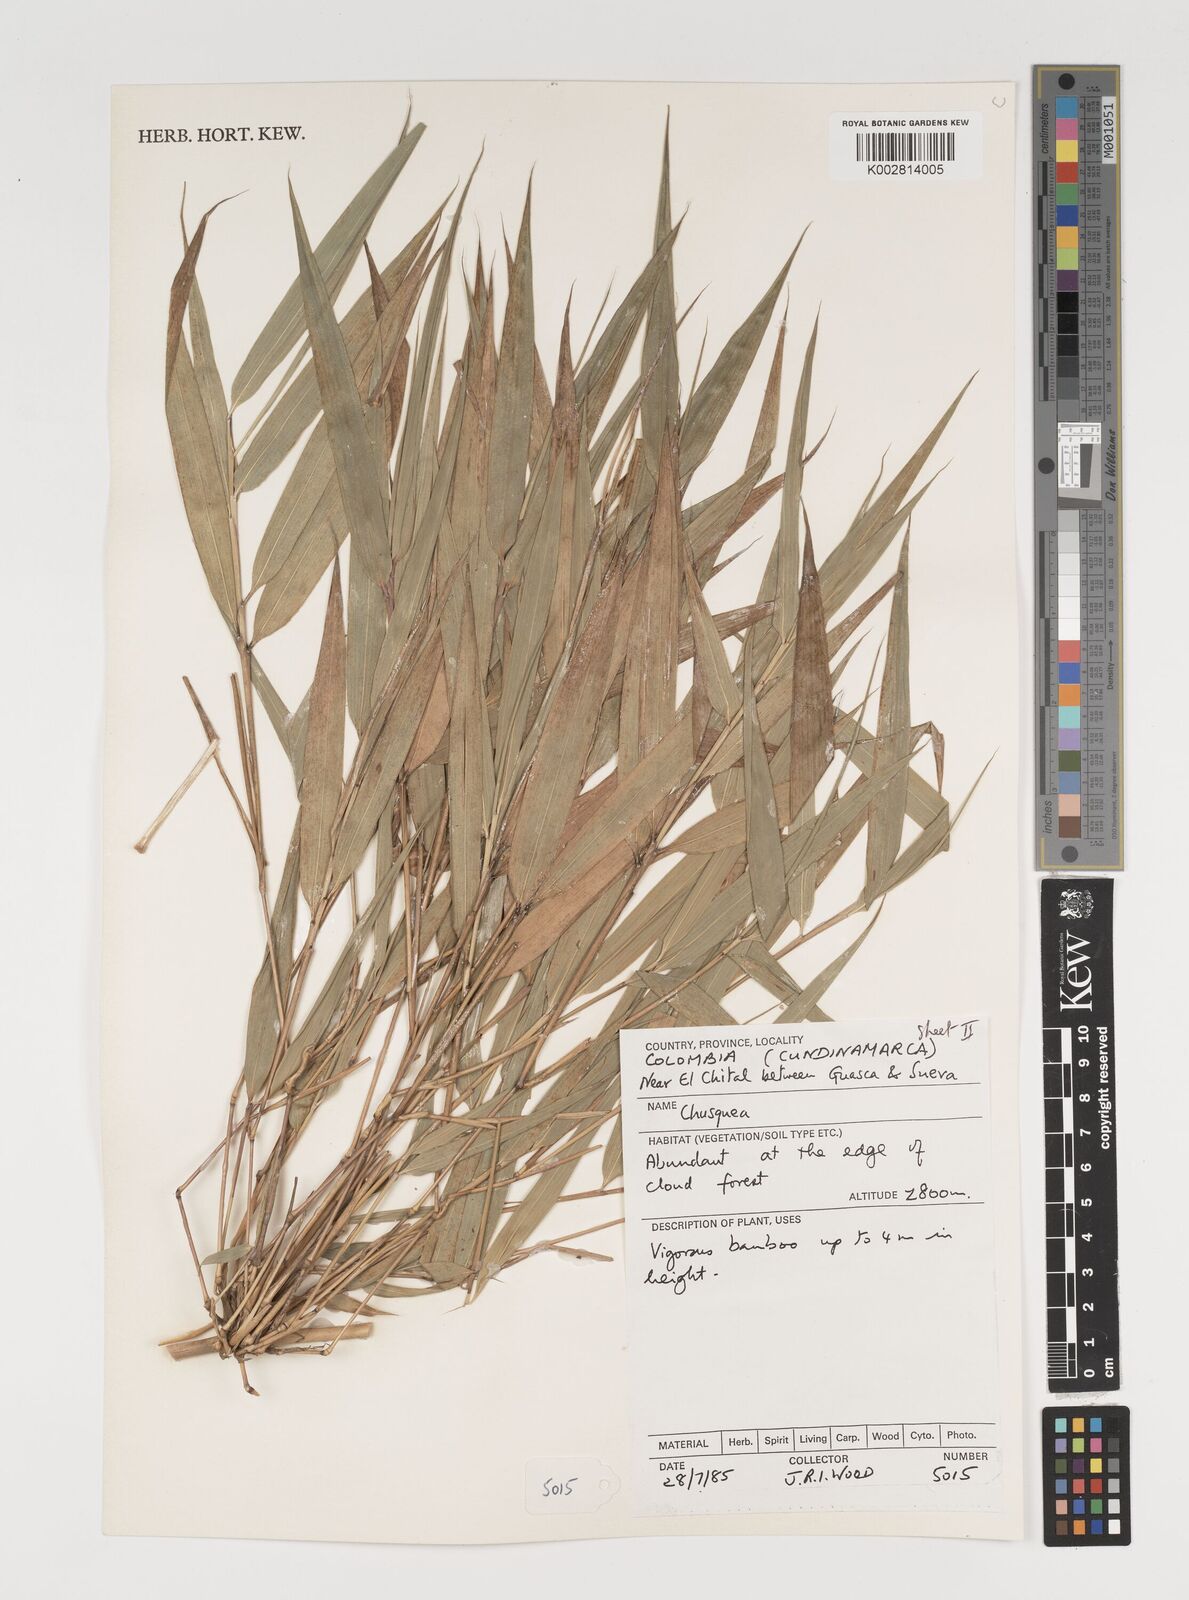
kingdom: Plantae
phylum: Tracheophyta
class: Liliopsida
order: Poales
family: Poaceae
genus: Chusquea
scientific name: Chusquea
